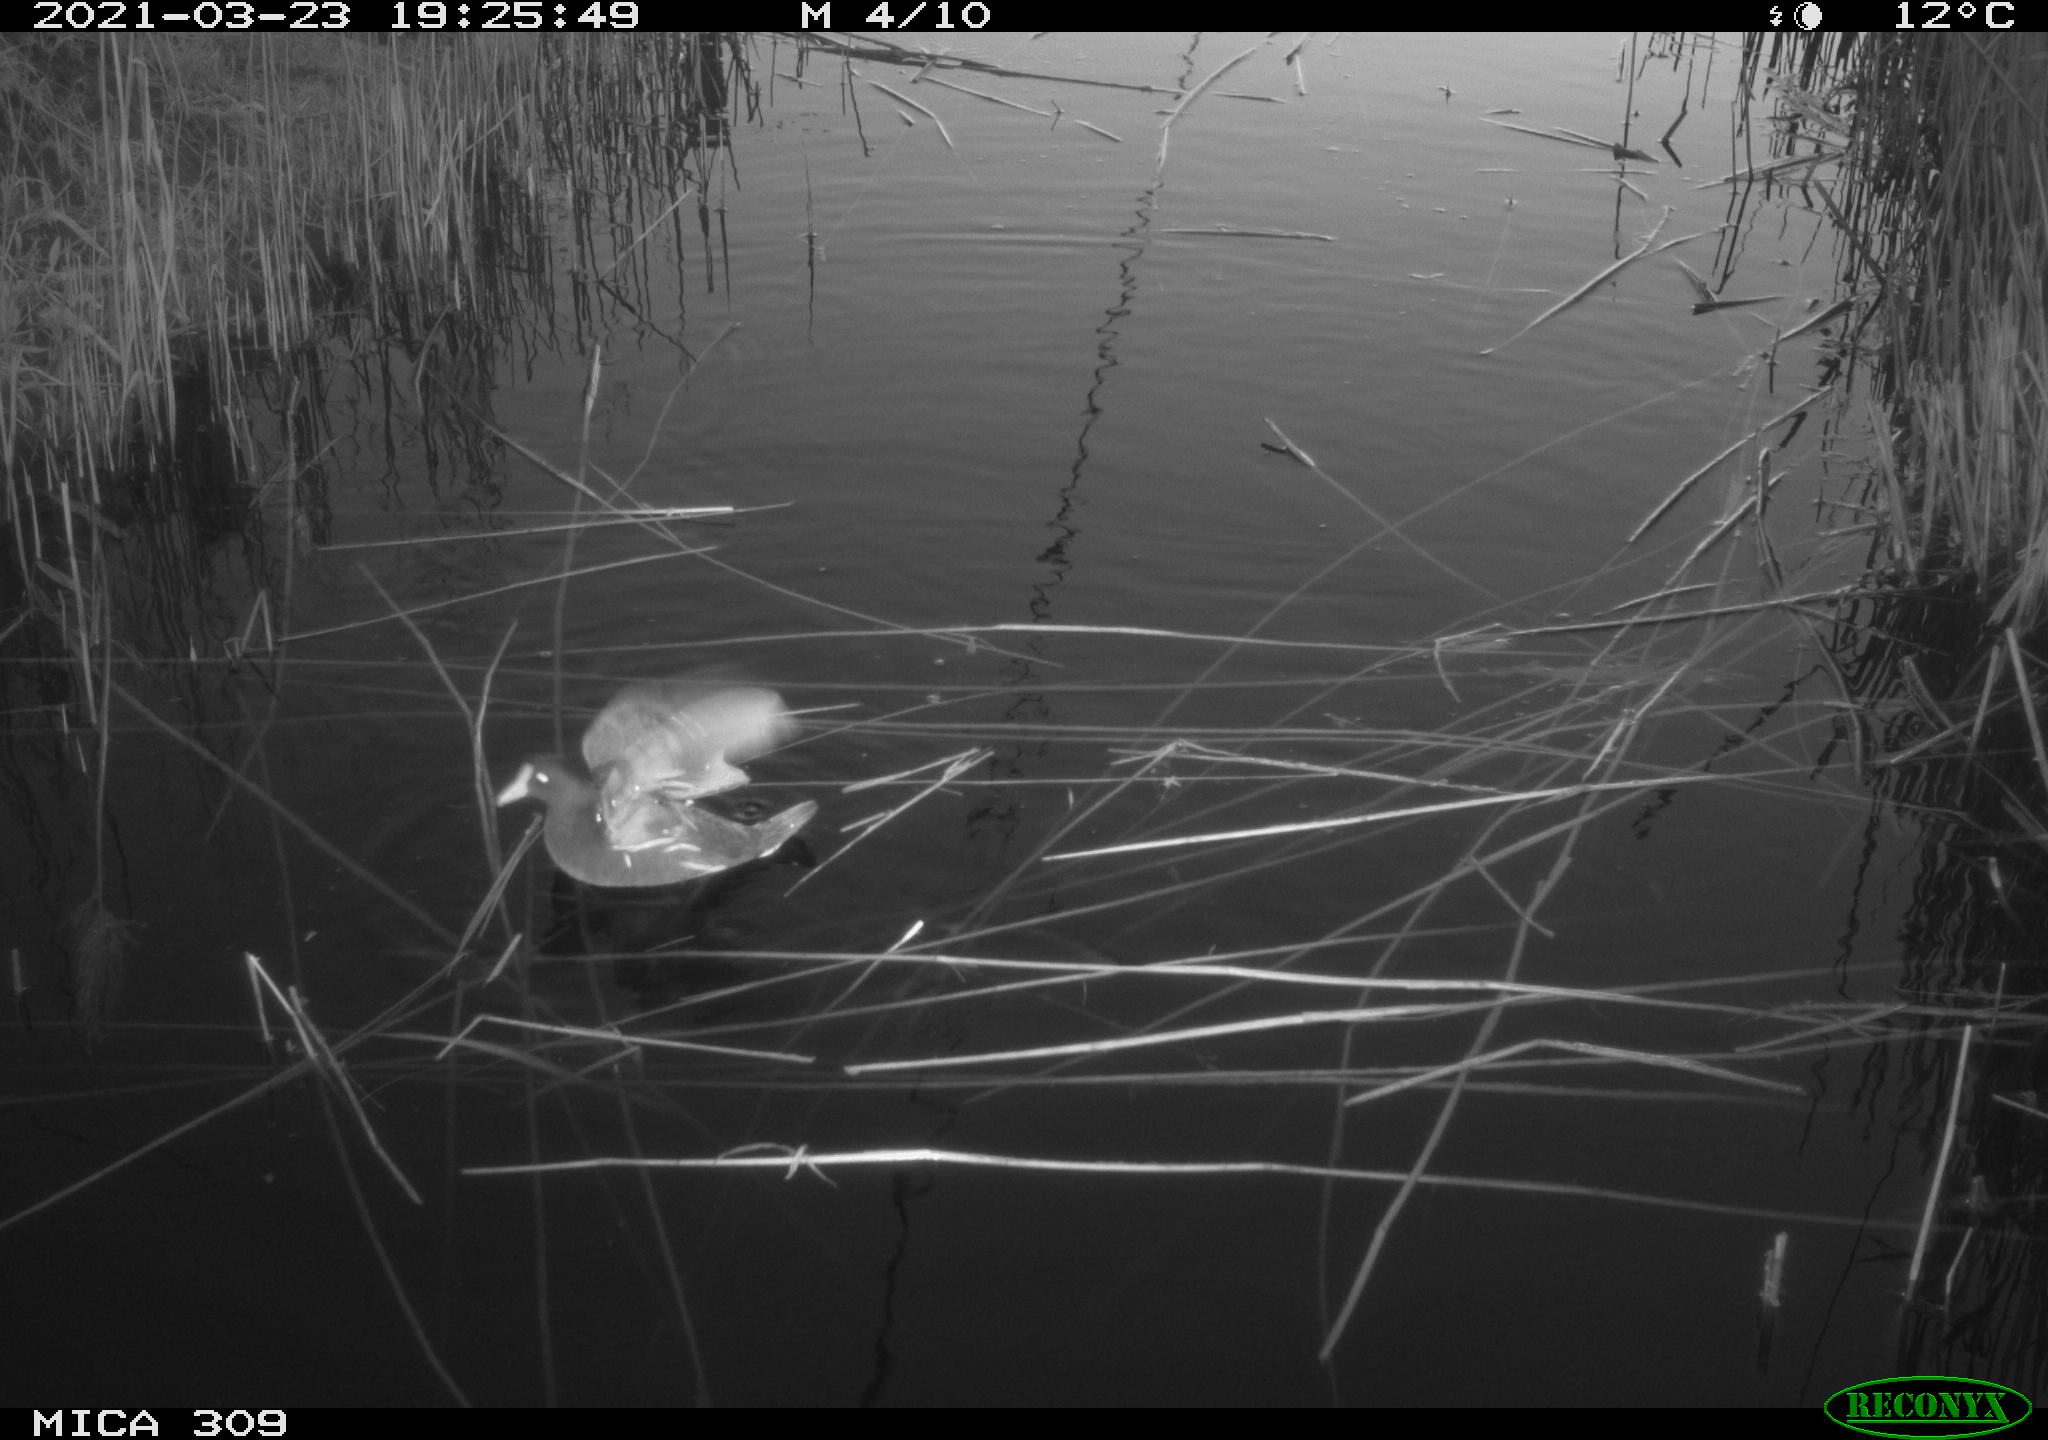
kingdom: Animalia
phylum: Chordata
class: Aves
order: Gruiformes
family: Rallidae
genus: Gallinula
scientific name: Gallinula chloropus
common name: Common moorhen
